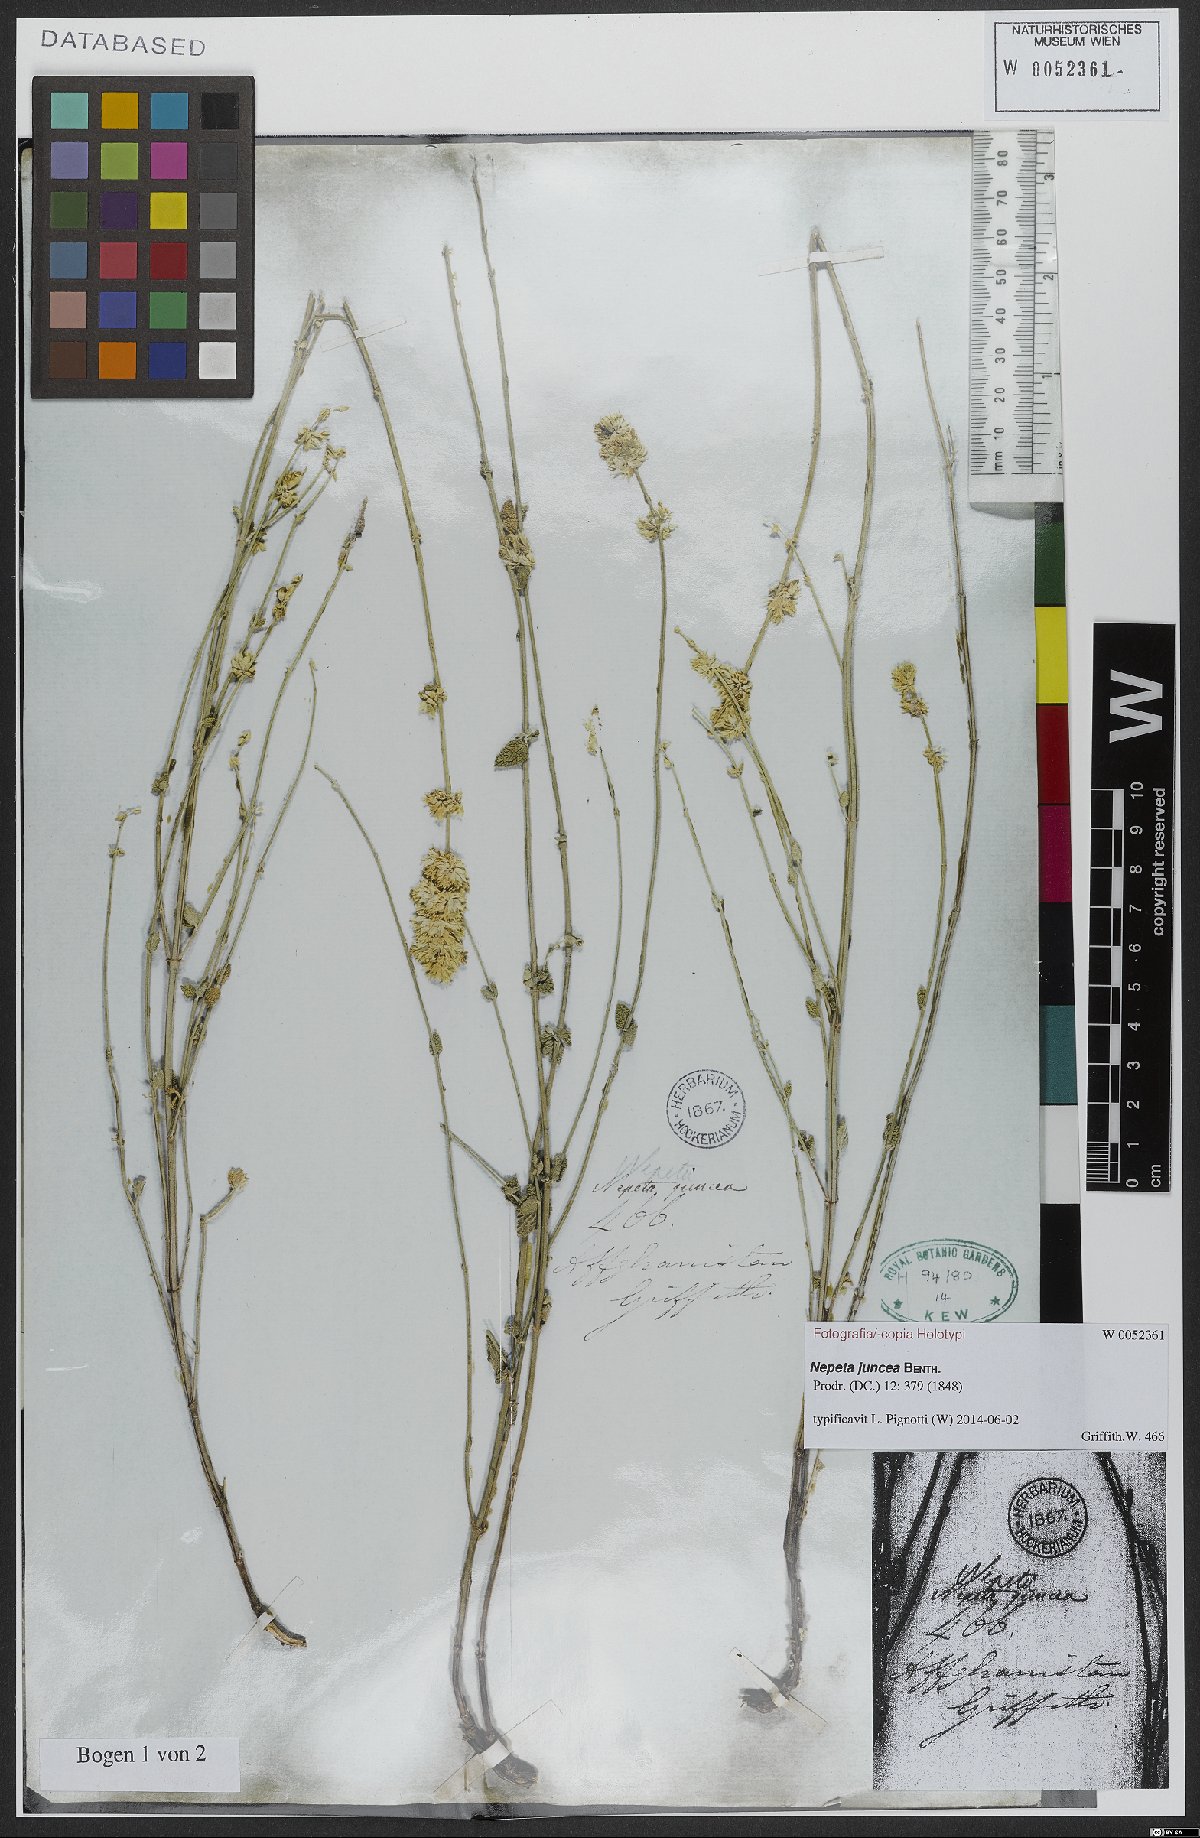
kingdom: Plantae
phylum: Tracheophyta
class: Magnoliopsida
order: Lamiales
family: Lamiaceae
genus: Nepeta
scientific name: Nepeta juncea
